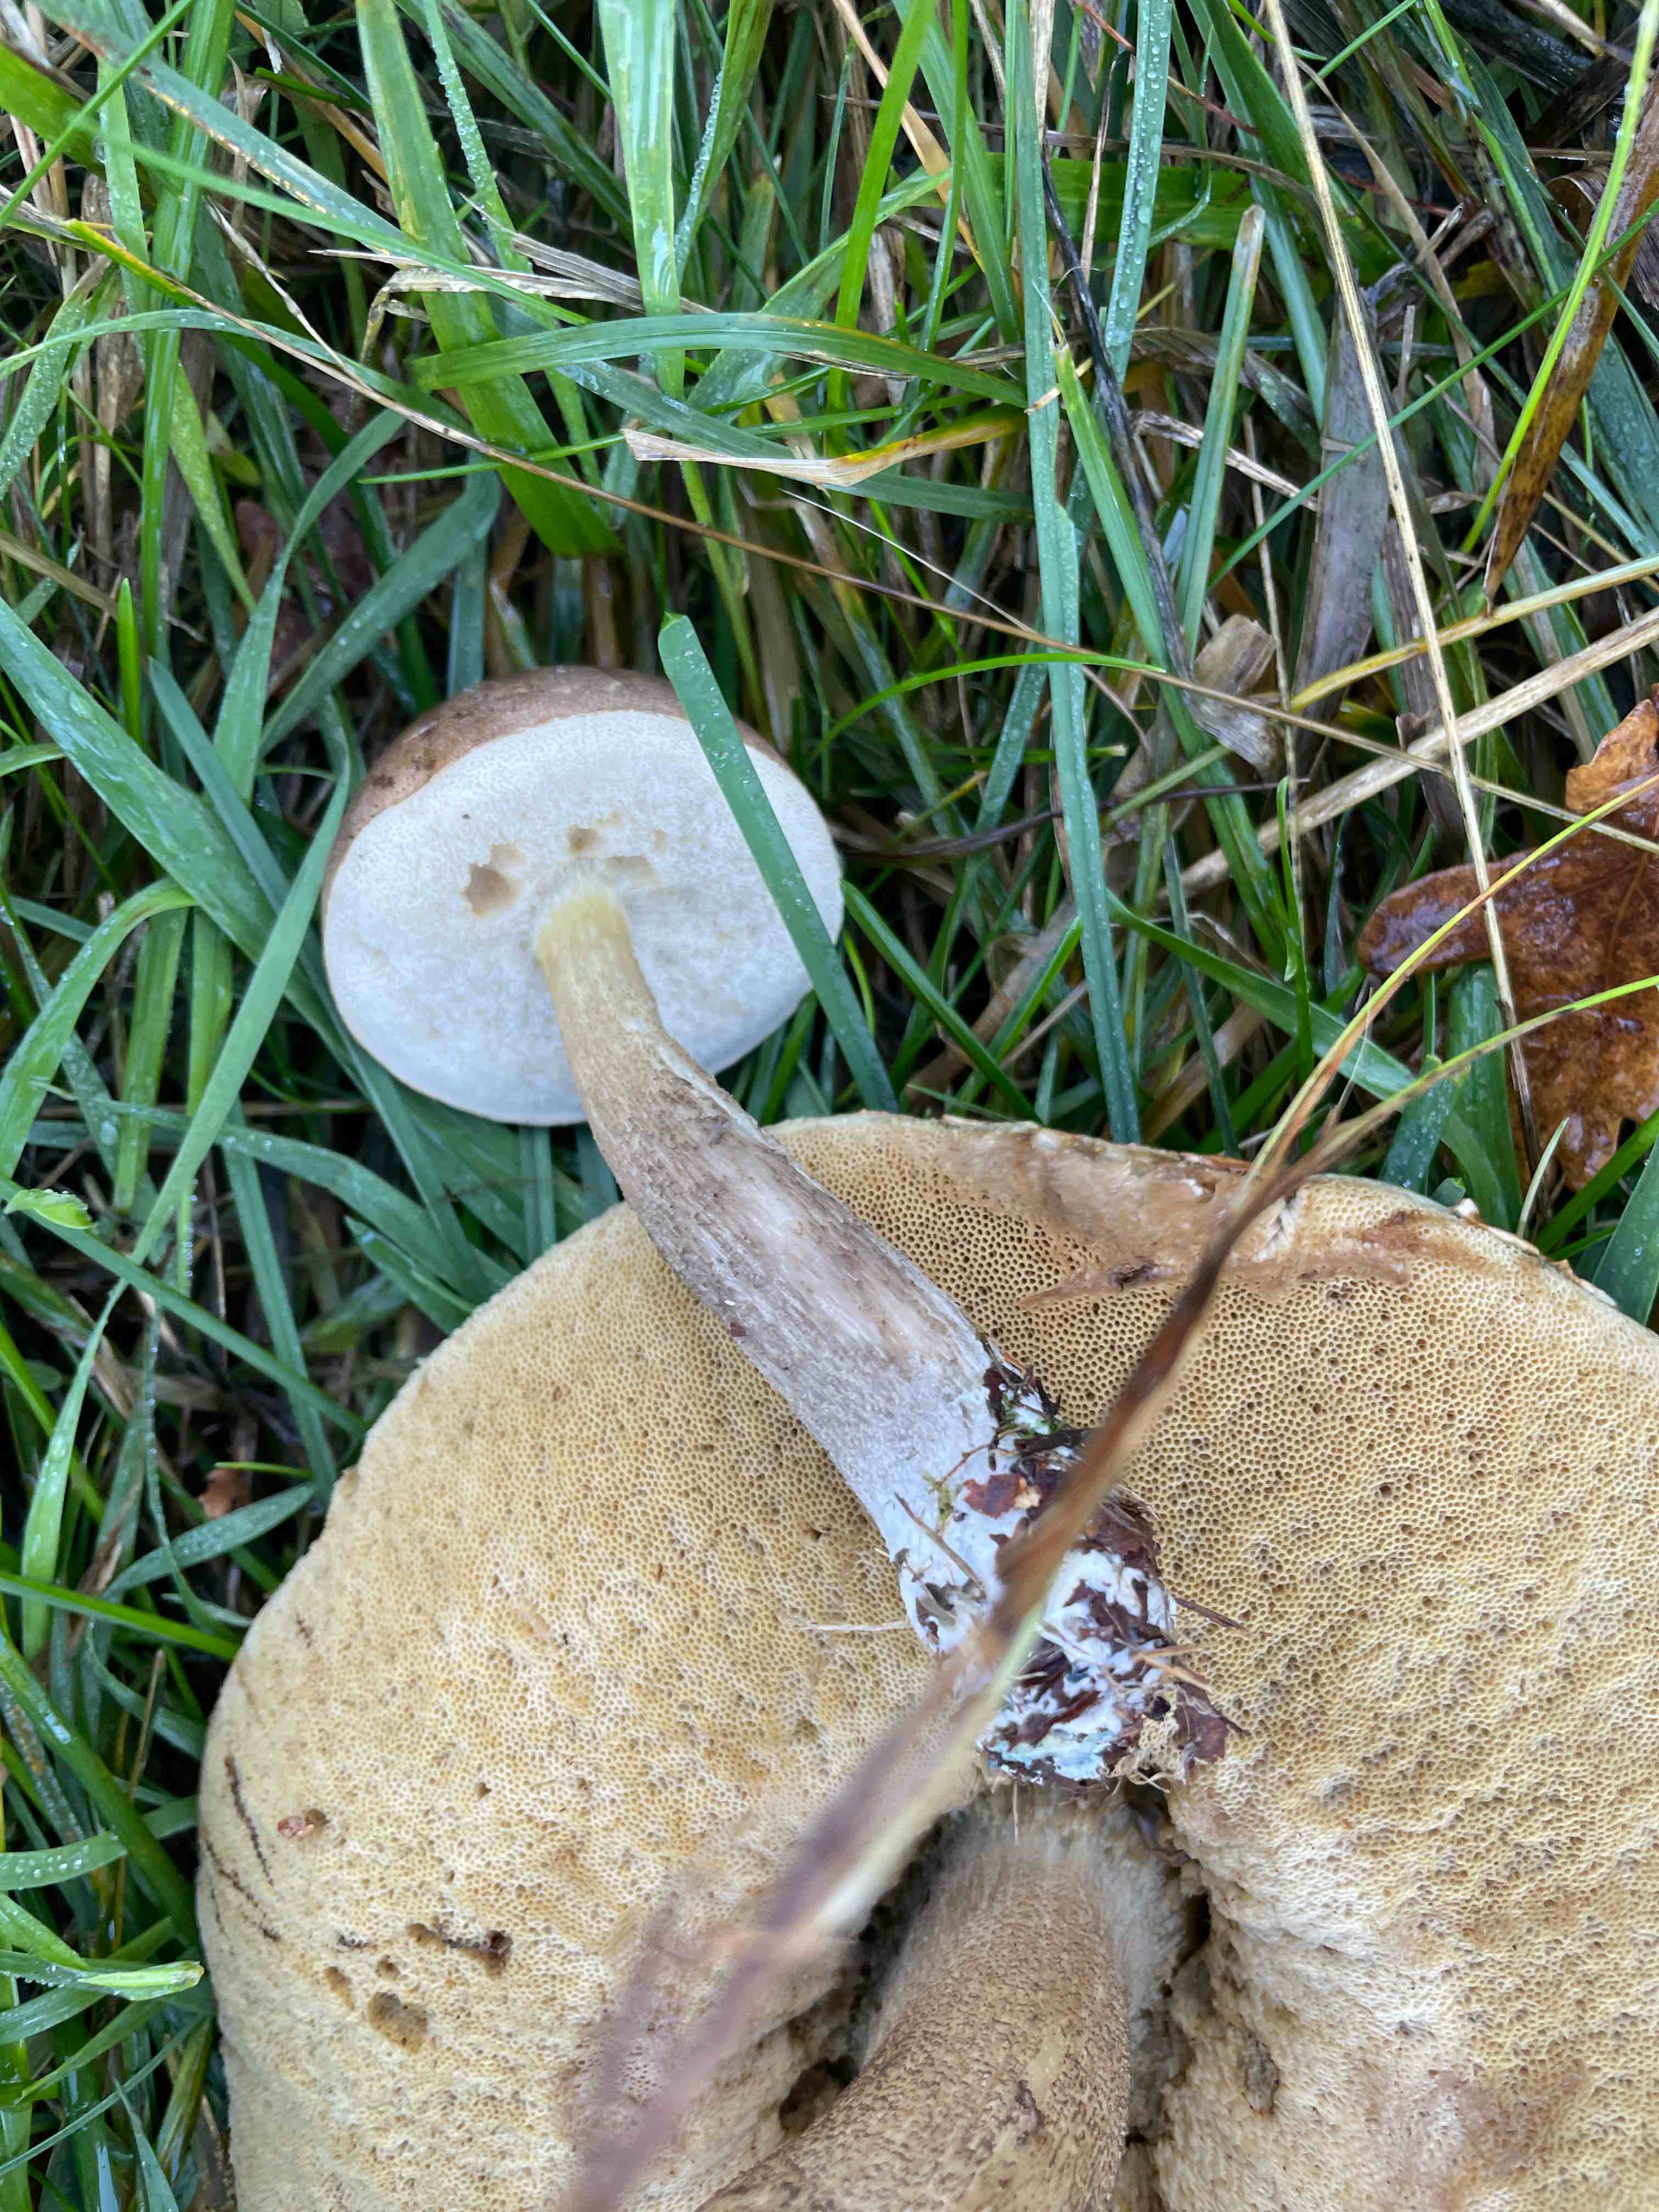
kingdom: Fungi
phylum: Basidiomycota
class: Agaricomycetes
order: Boletales
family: Boletaceae
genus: Leccinum
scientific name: Leccinum
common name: skælrørhat
